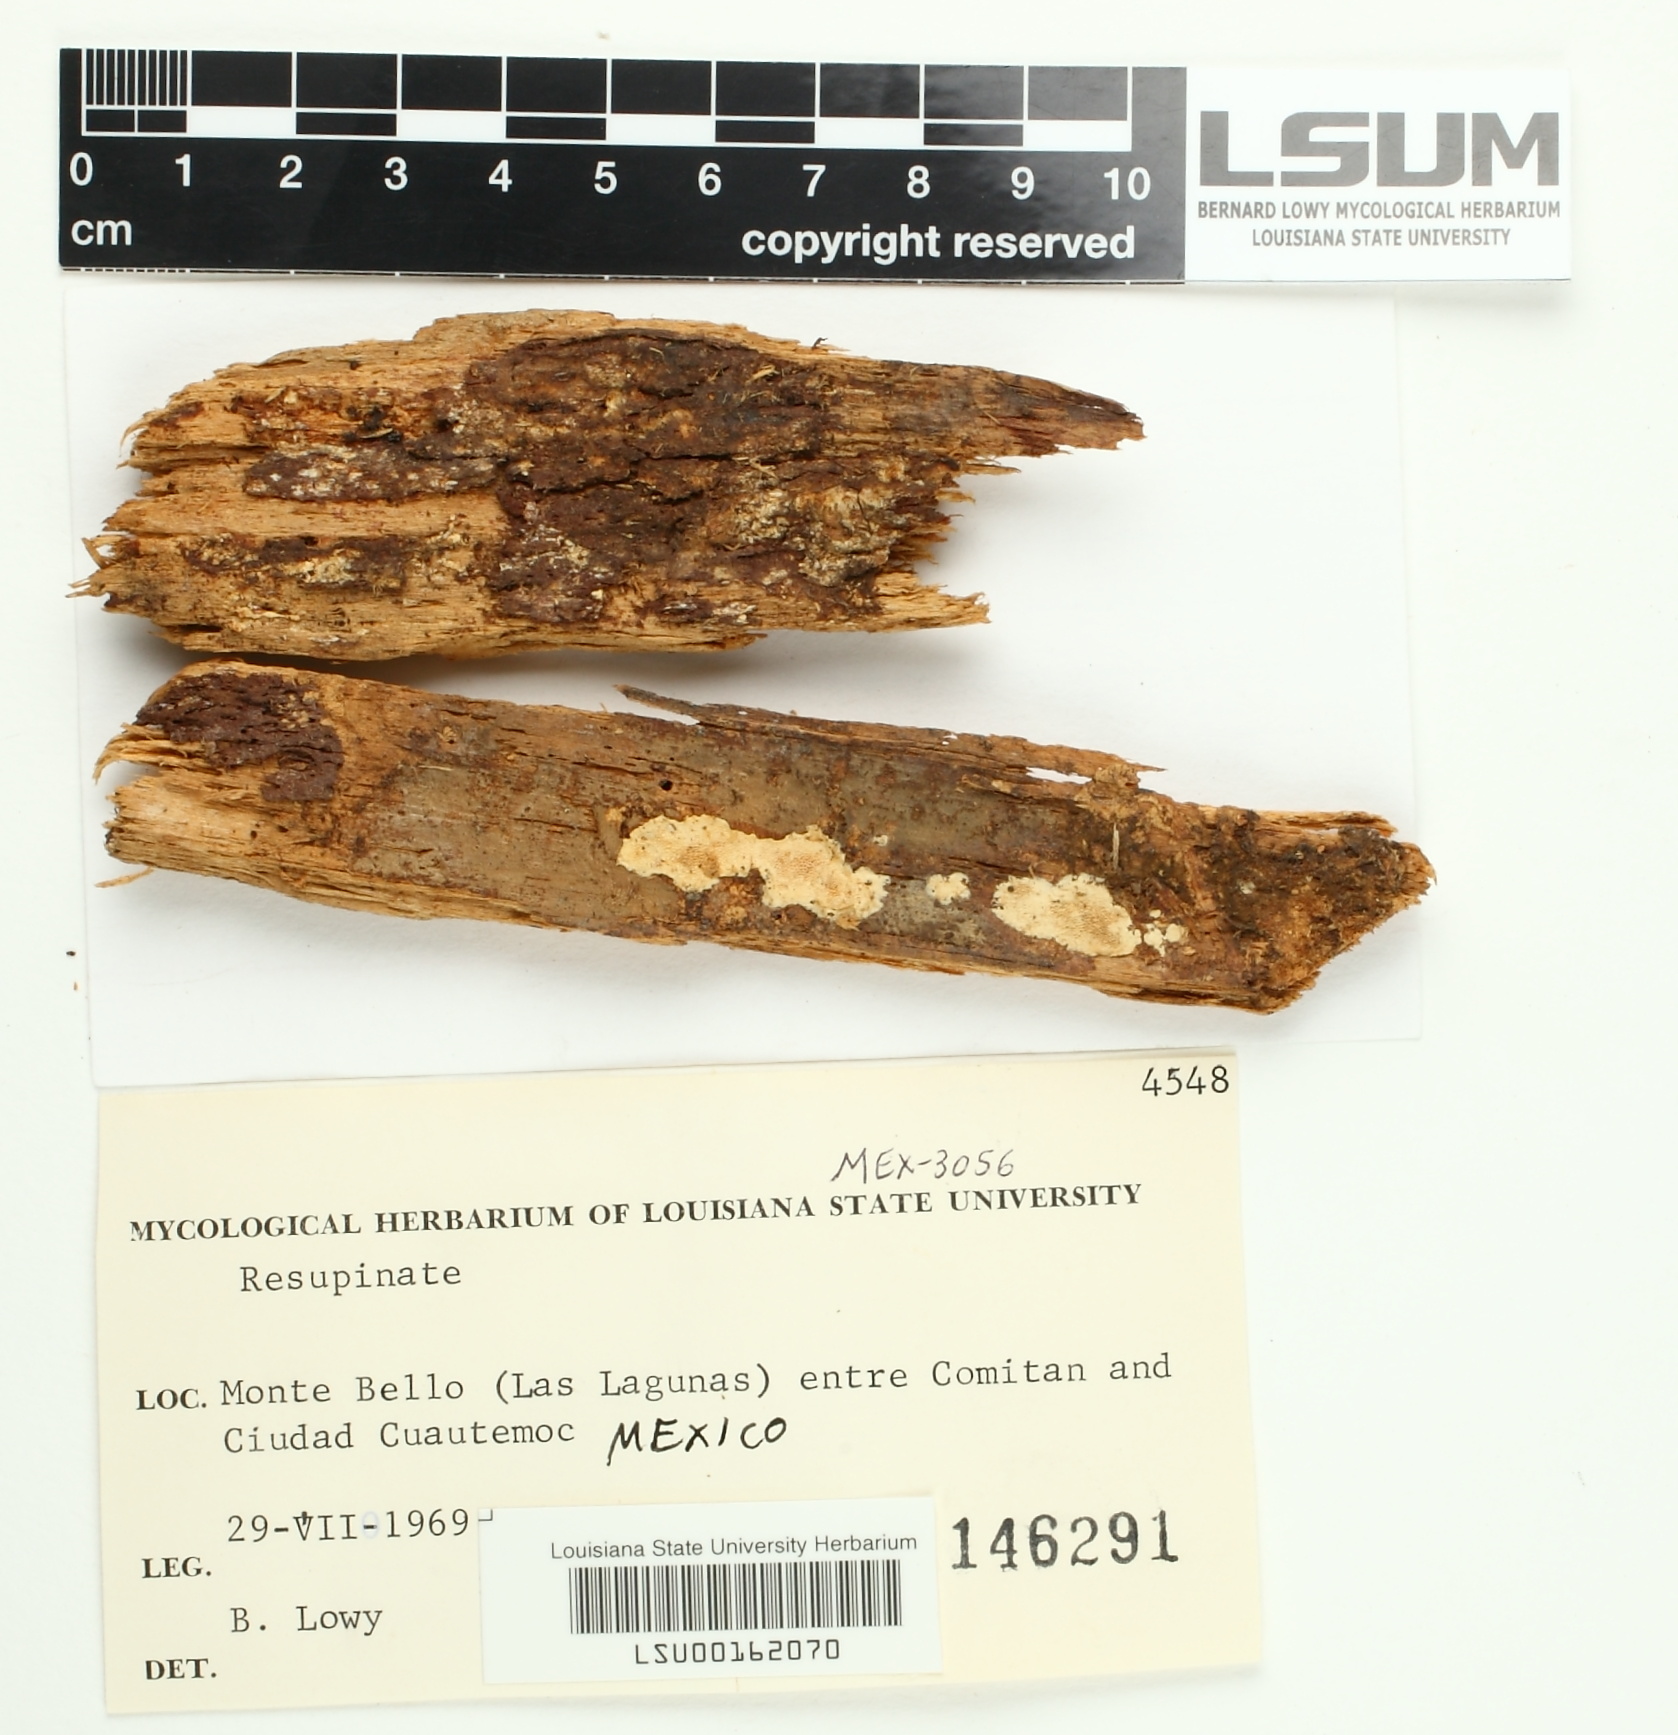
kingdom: Fungi
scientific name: Fungi
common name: Fungi
